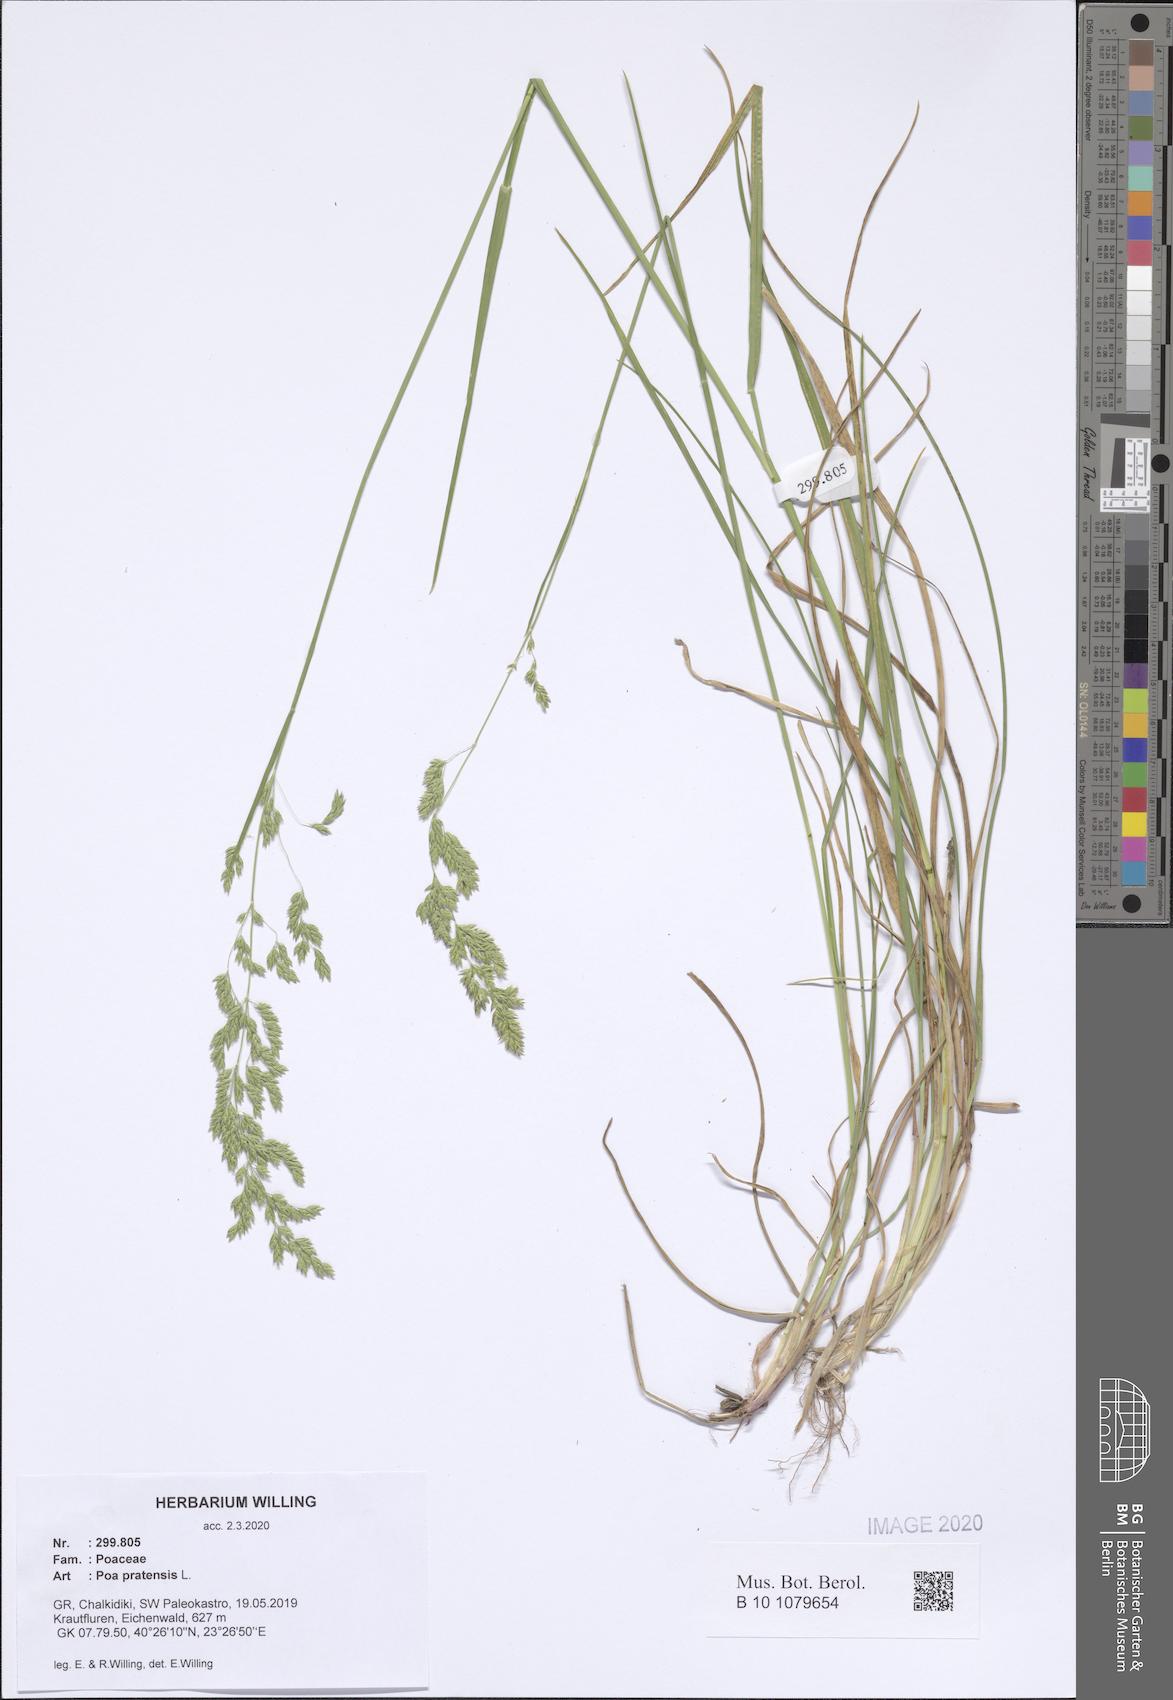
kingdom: Plantae
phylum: Tracheophyta
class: Liliopsida
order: Poales
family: Poaceae
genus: Poa
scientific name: Poa pratensis
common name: Kentucky bluegrass
